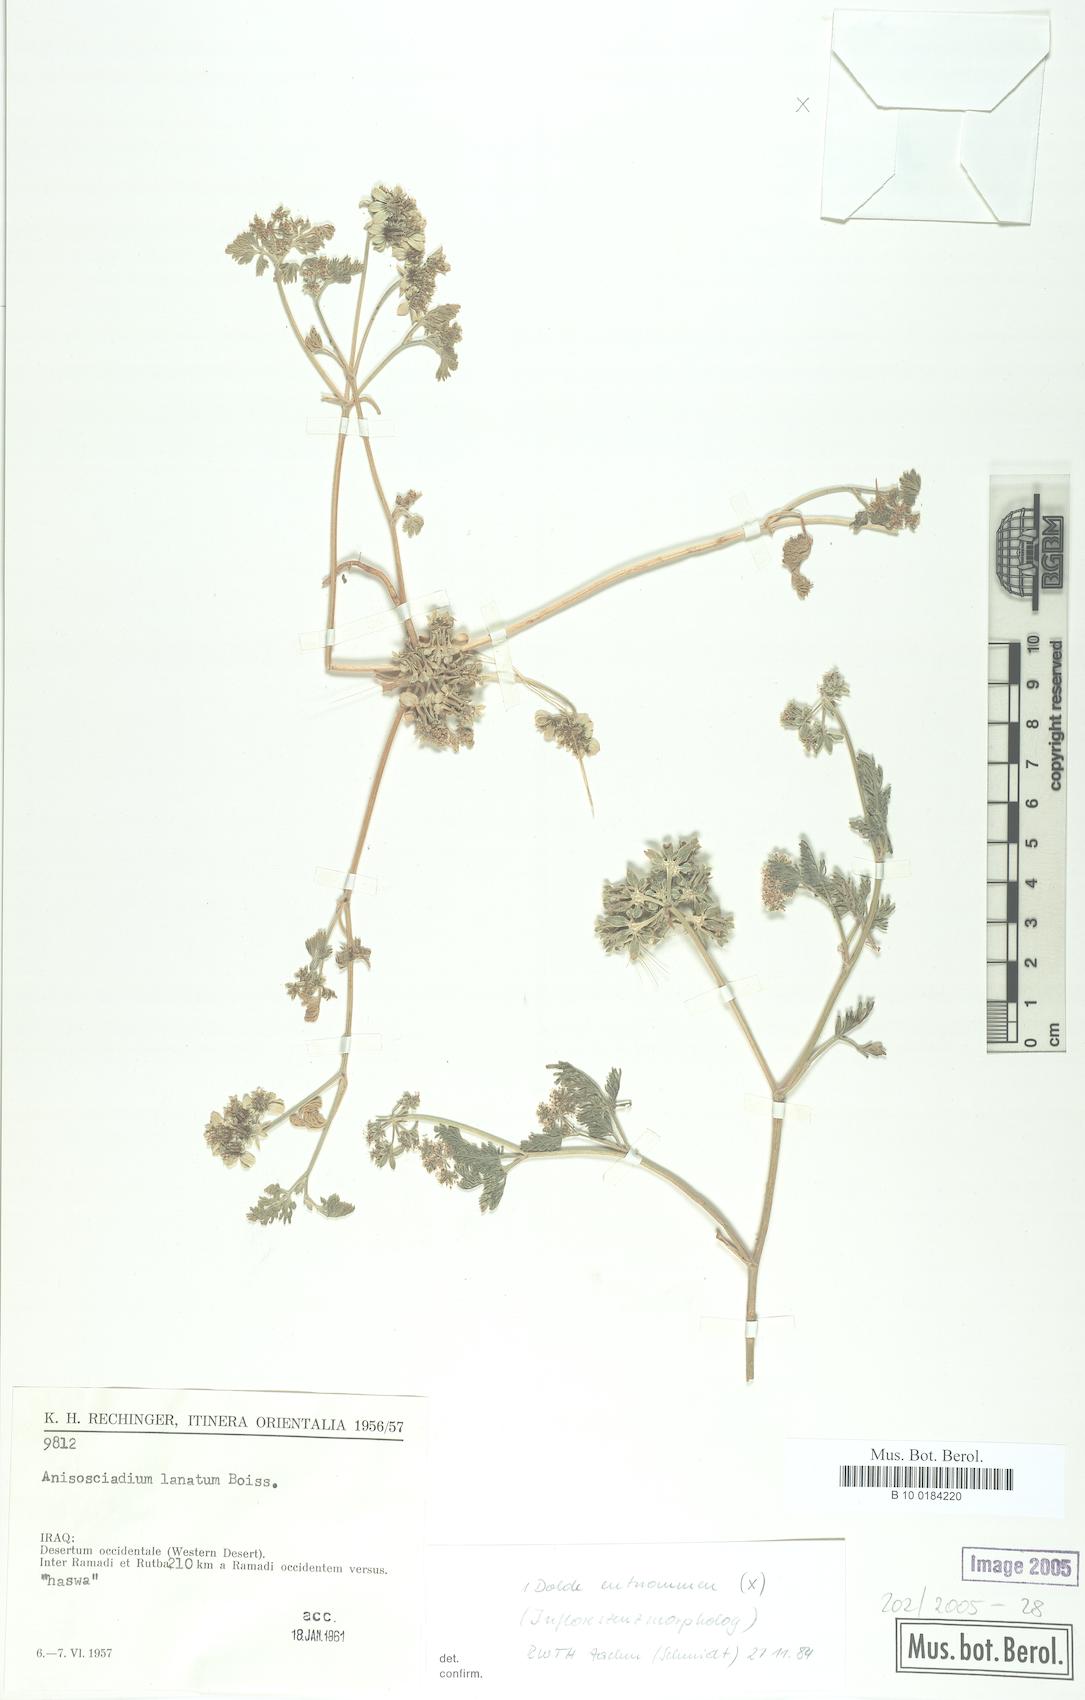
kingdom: Plantae
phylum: Tracheophyta
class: Magnoliopsida
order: Apiales
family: Apiaceae
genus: Anisosciadium
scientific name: Anisosciadium lanatum
